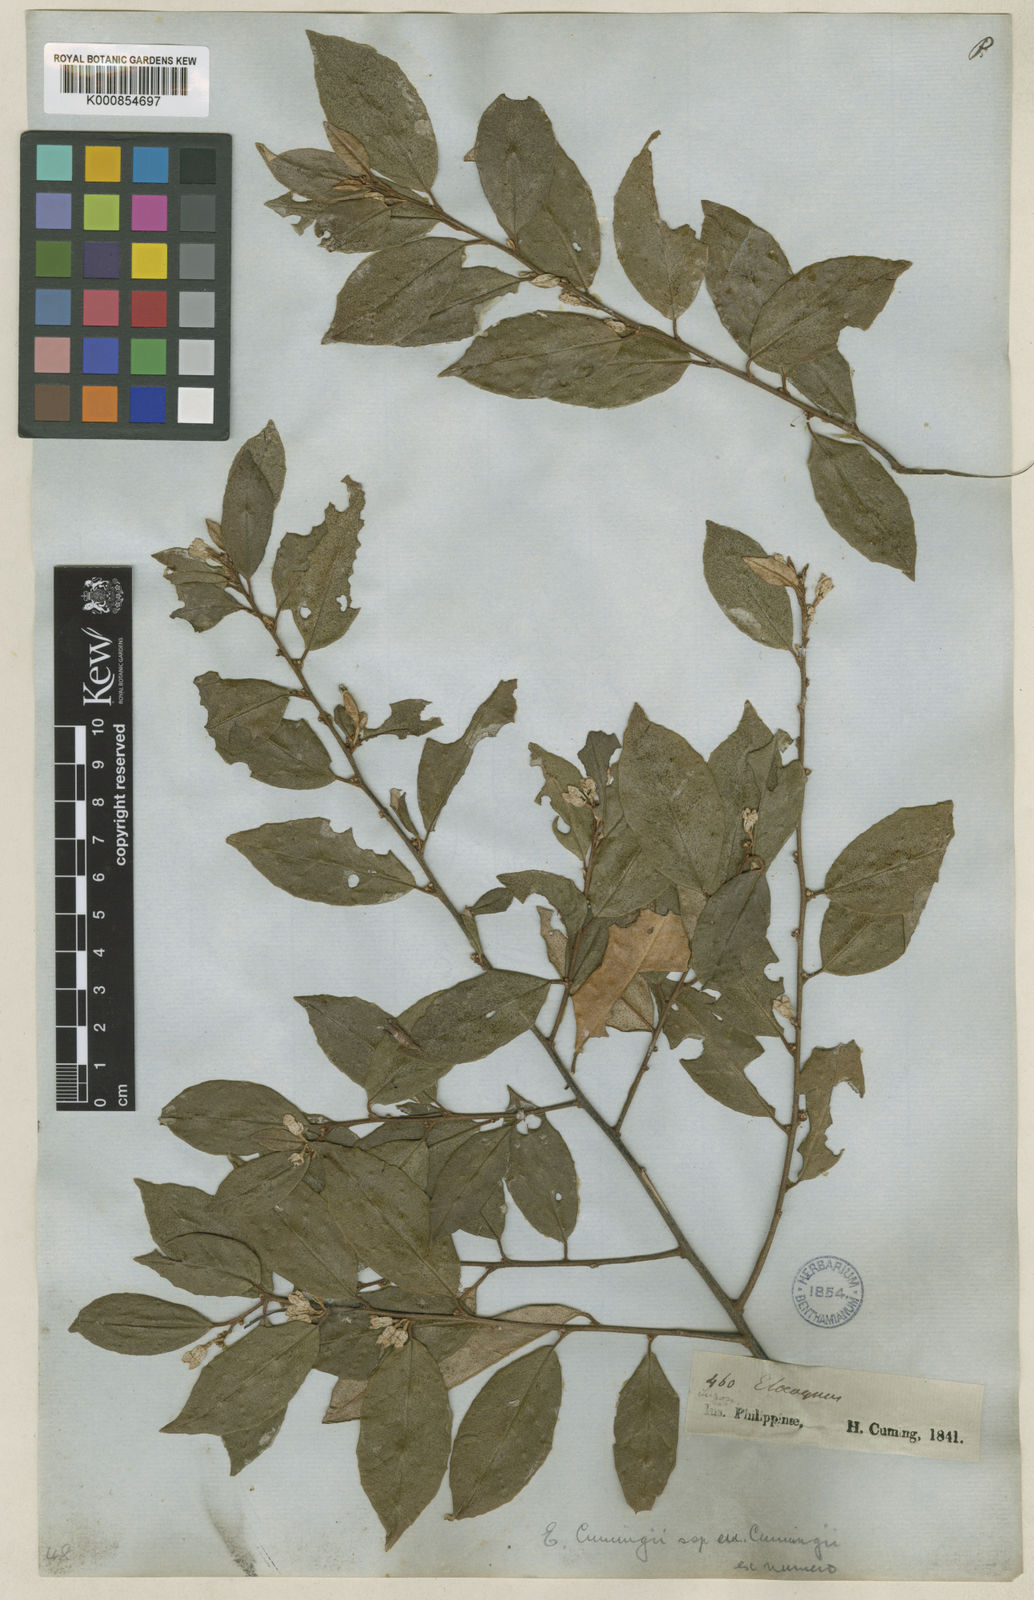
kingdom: Plantae
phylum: Tracheophyta
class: Magnoliopsida
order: Rosales
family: Elaeagnaceae
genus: Elaeagnus
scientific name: Elaeagnus triflora
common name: Millaa millaa-vine
